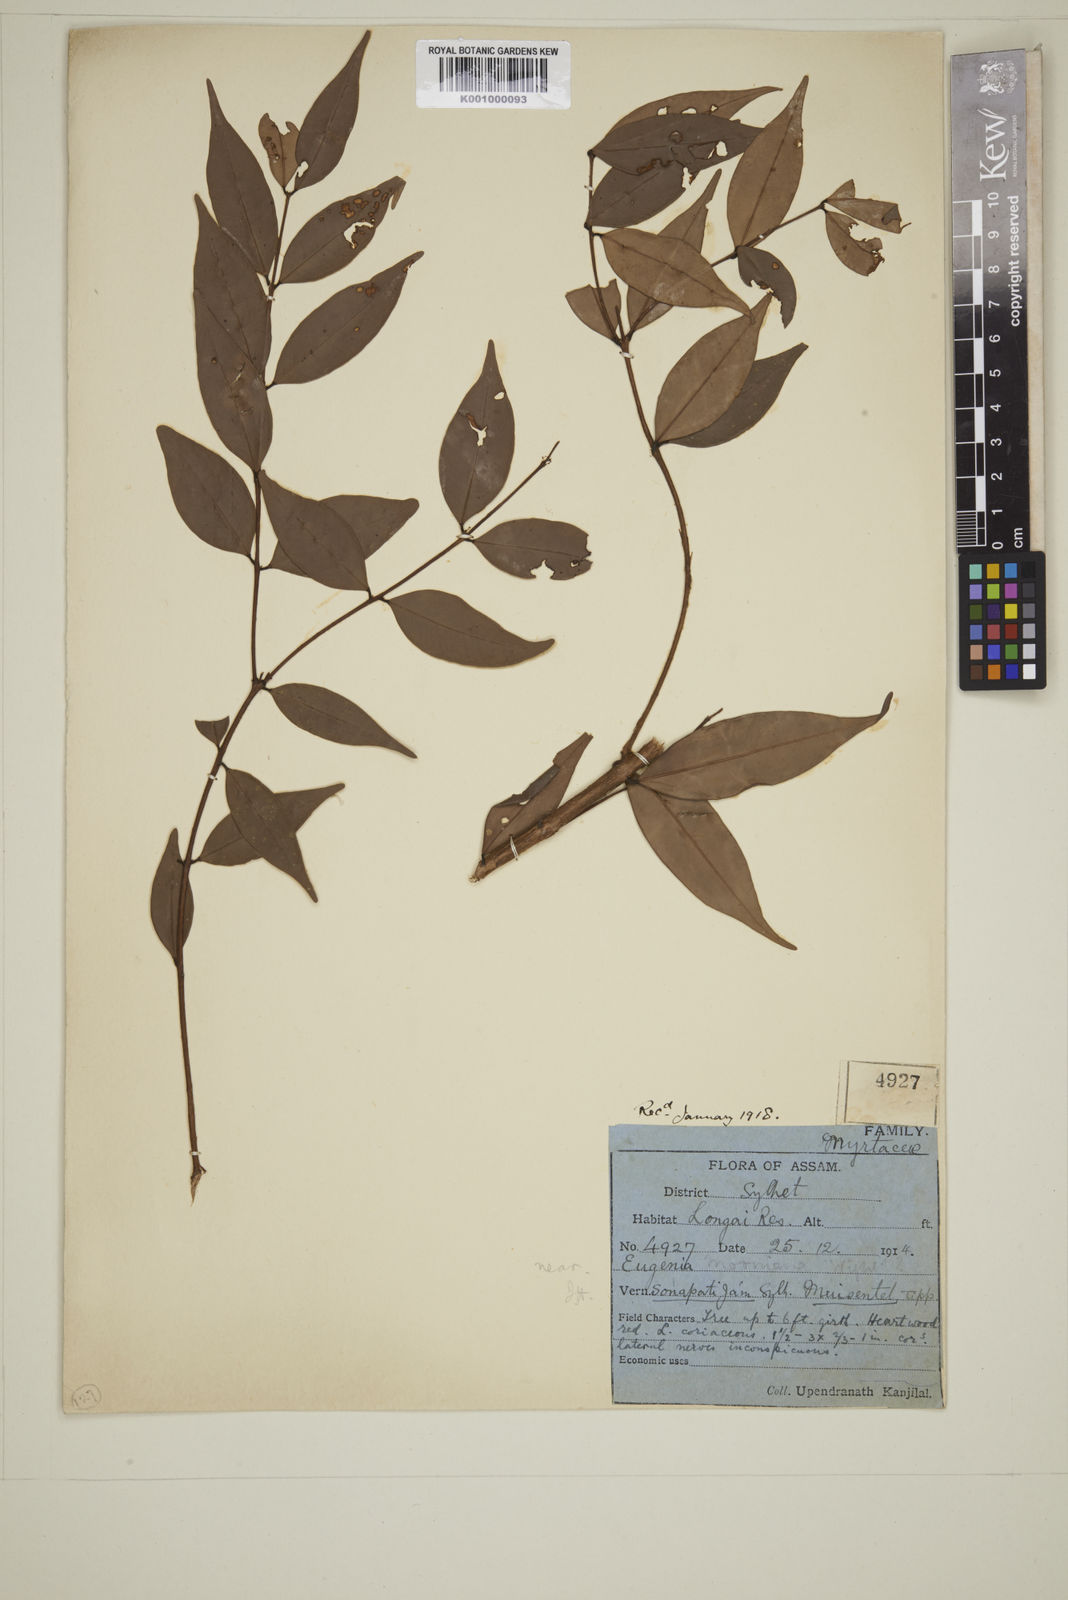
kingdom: Plantae
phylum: Tracheophyta
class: Magnoliopsida
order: Myrtales
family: Myrtaceae
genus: Eugenia
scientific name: Eugenia thwaitesii
